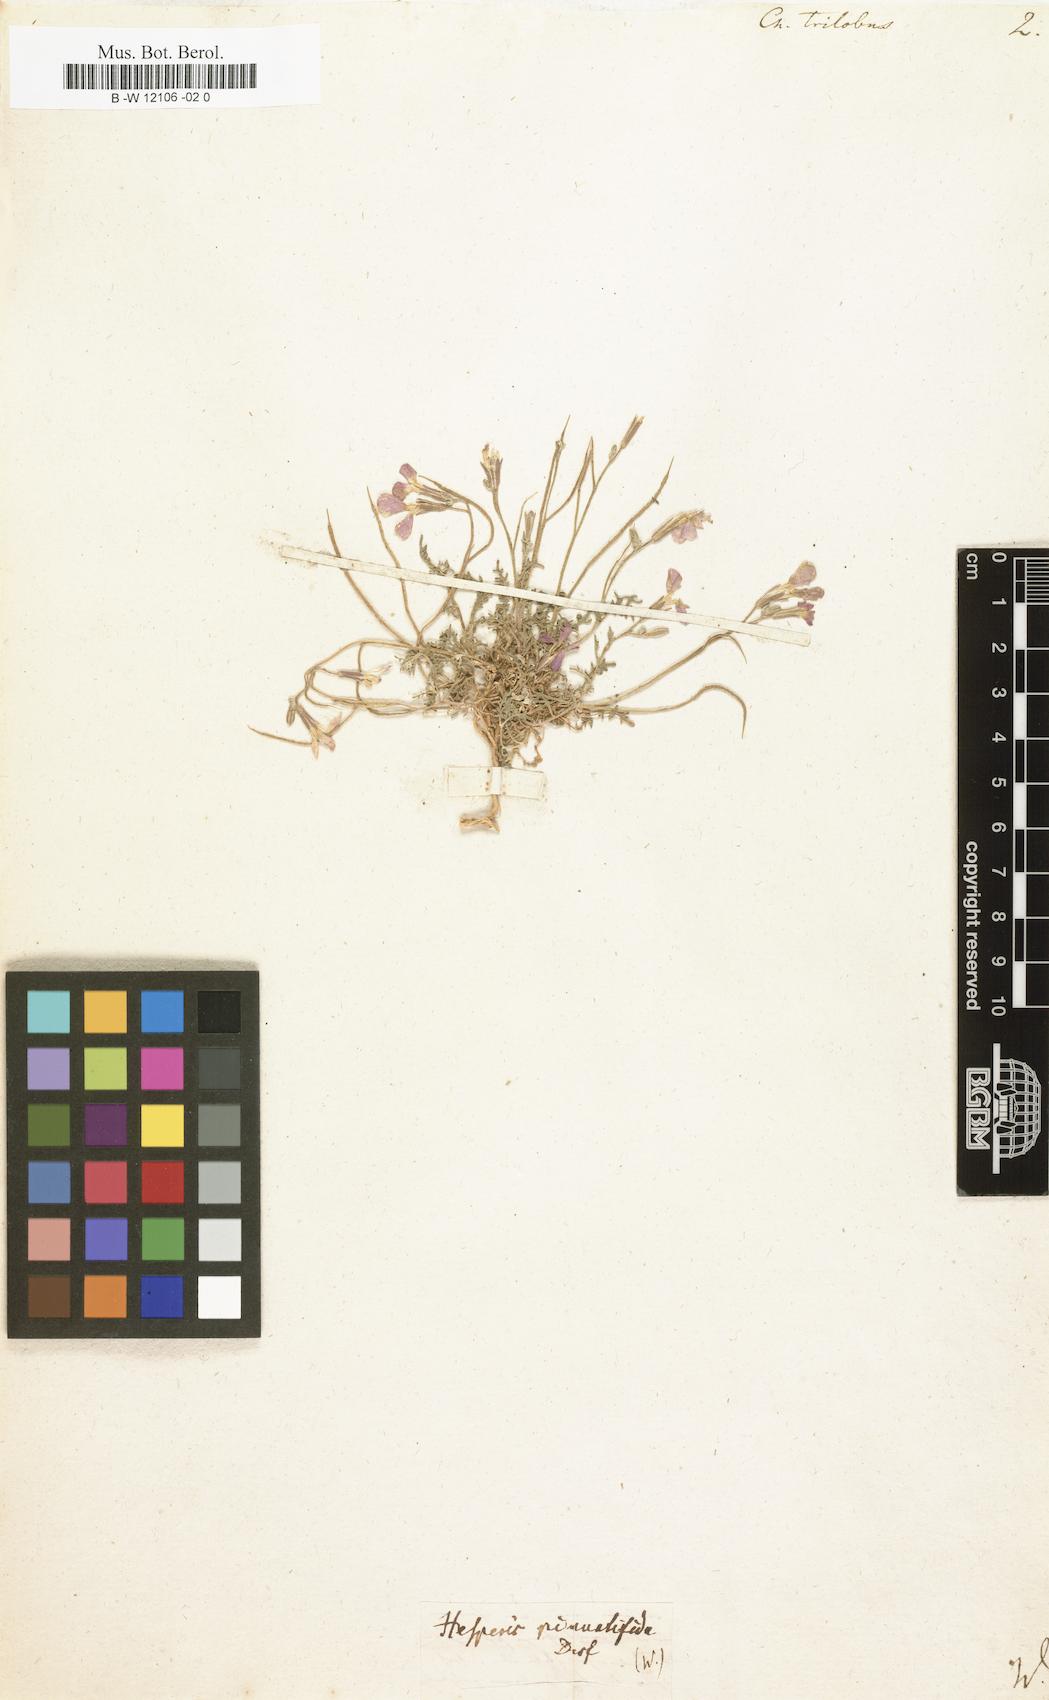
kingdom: Plantae
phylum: Tracheophyta
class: Magnoliopsida
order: Brassicales
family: Brassicaceae
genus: Marcuskochia
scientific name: Marcuskochia triloba
